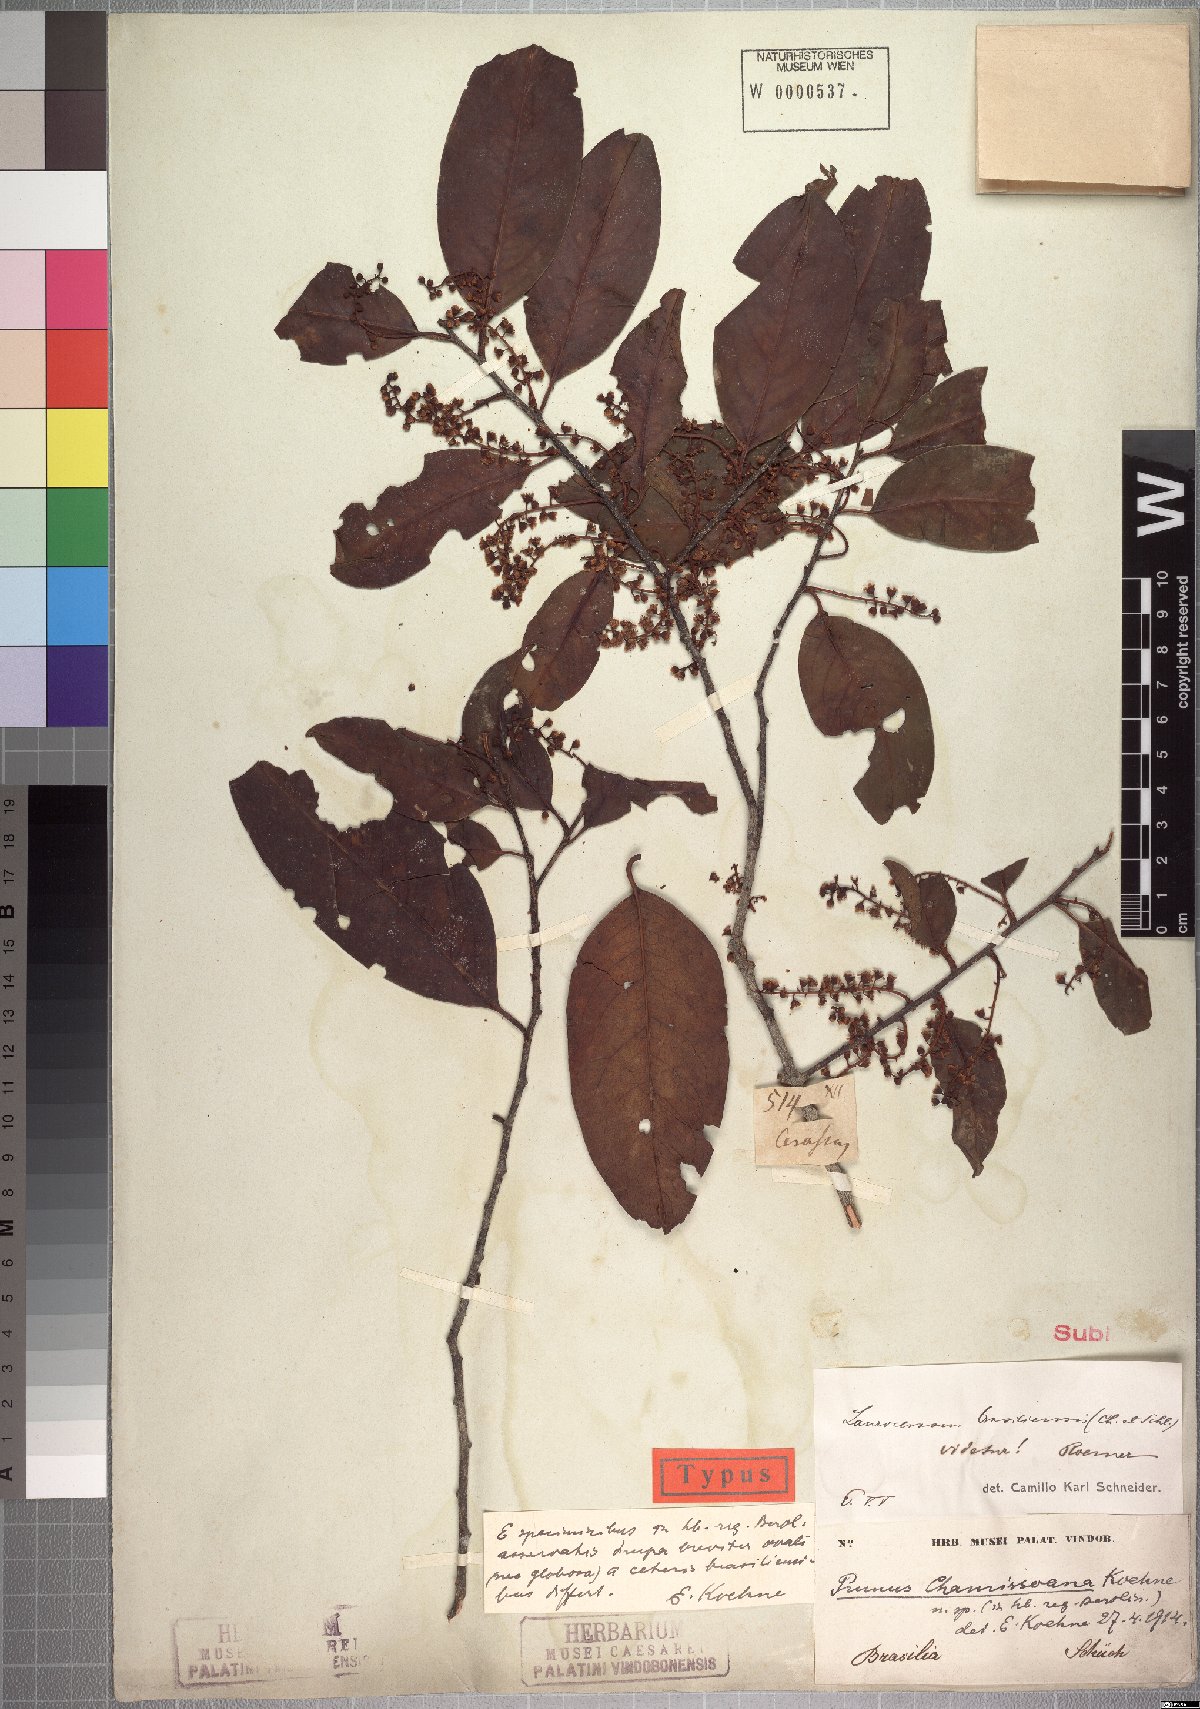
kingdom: Plantae
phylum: Tracheophyta
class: Magnoliopsida
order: Rosales
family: Rosaceae
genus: Prunus
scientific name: Prunus chamissoana
